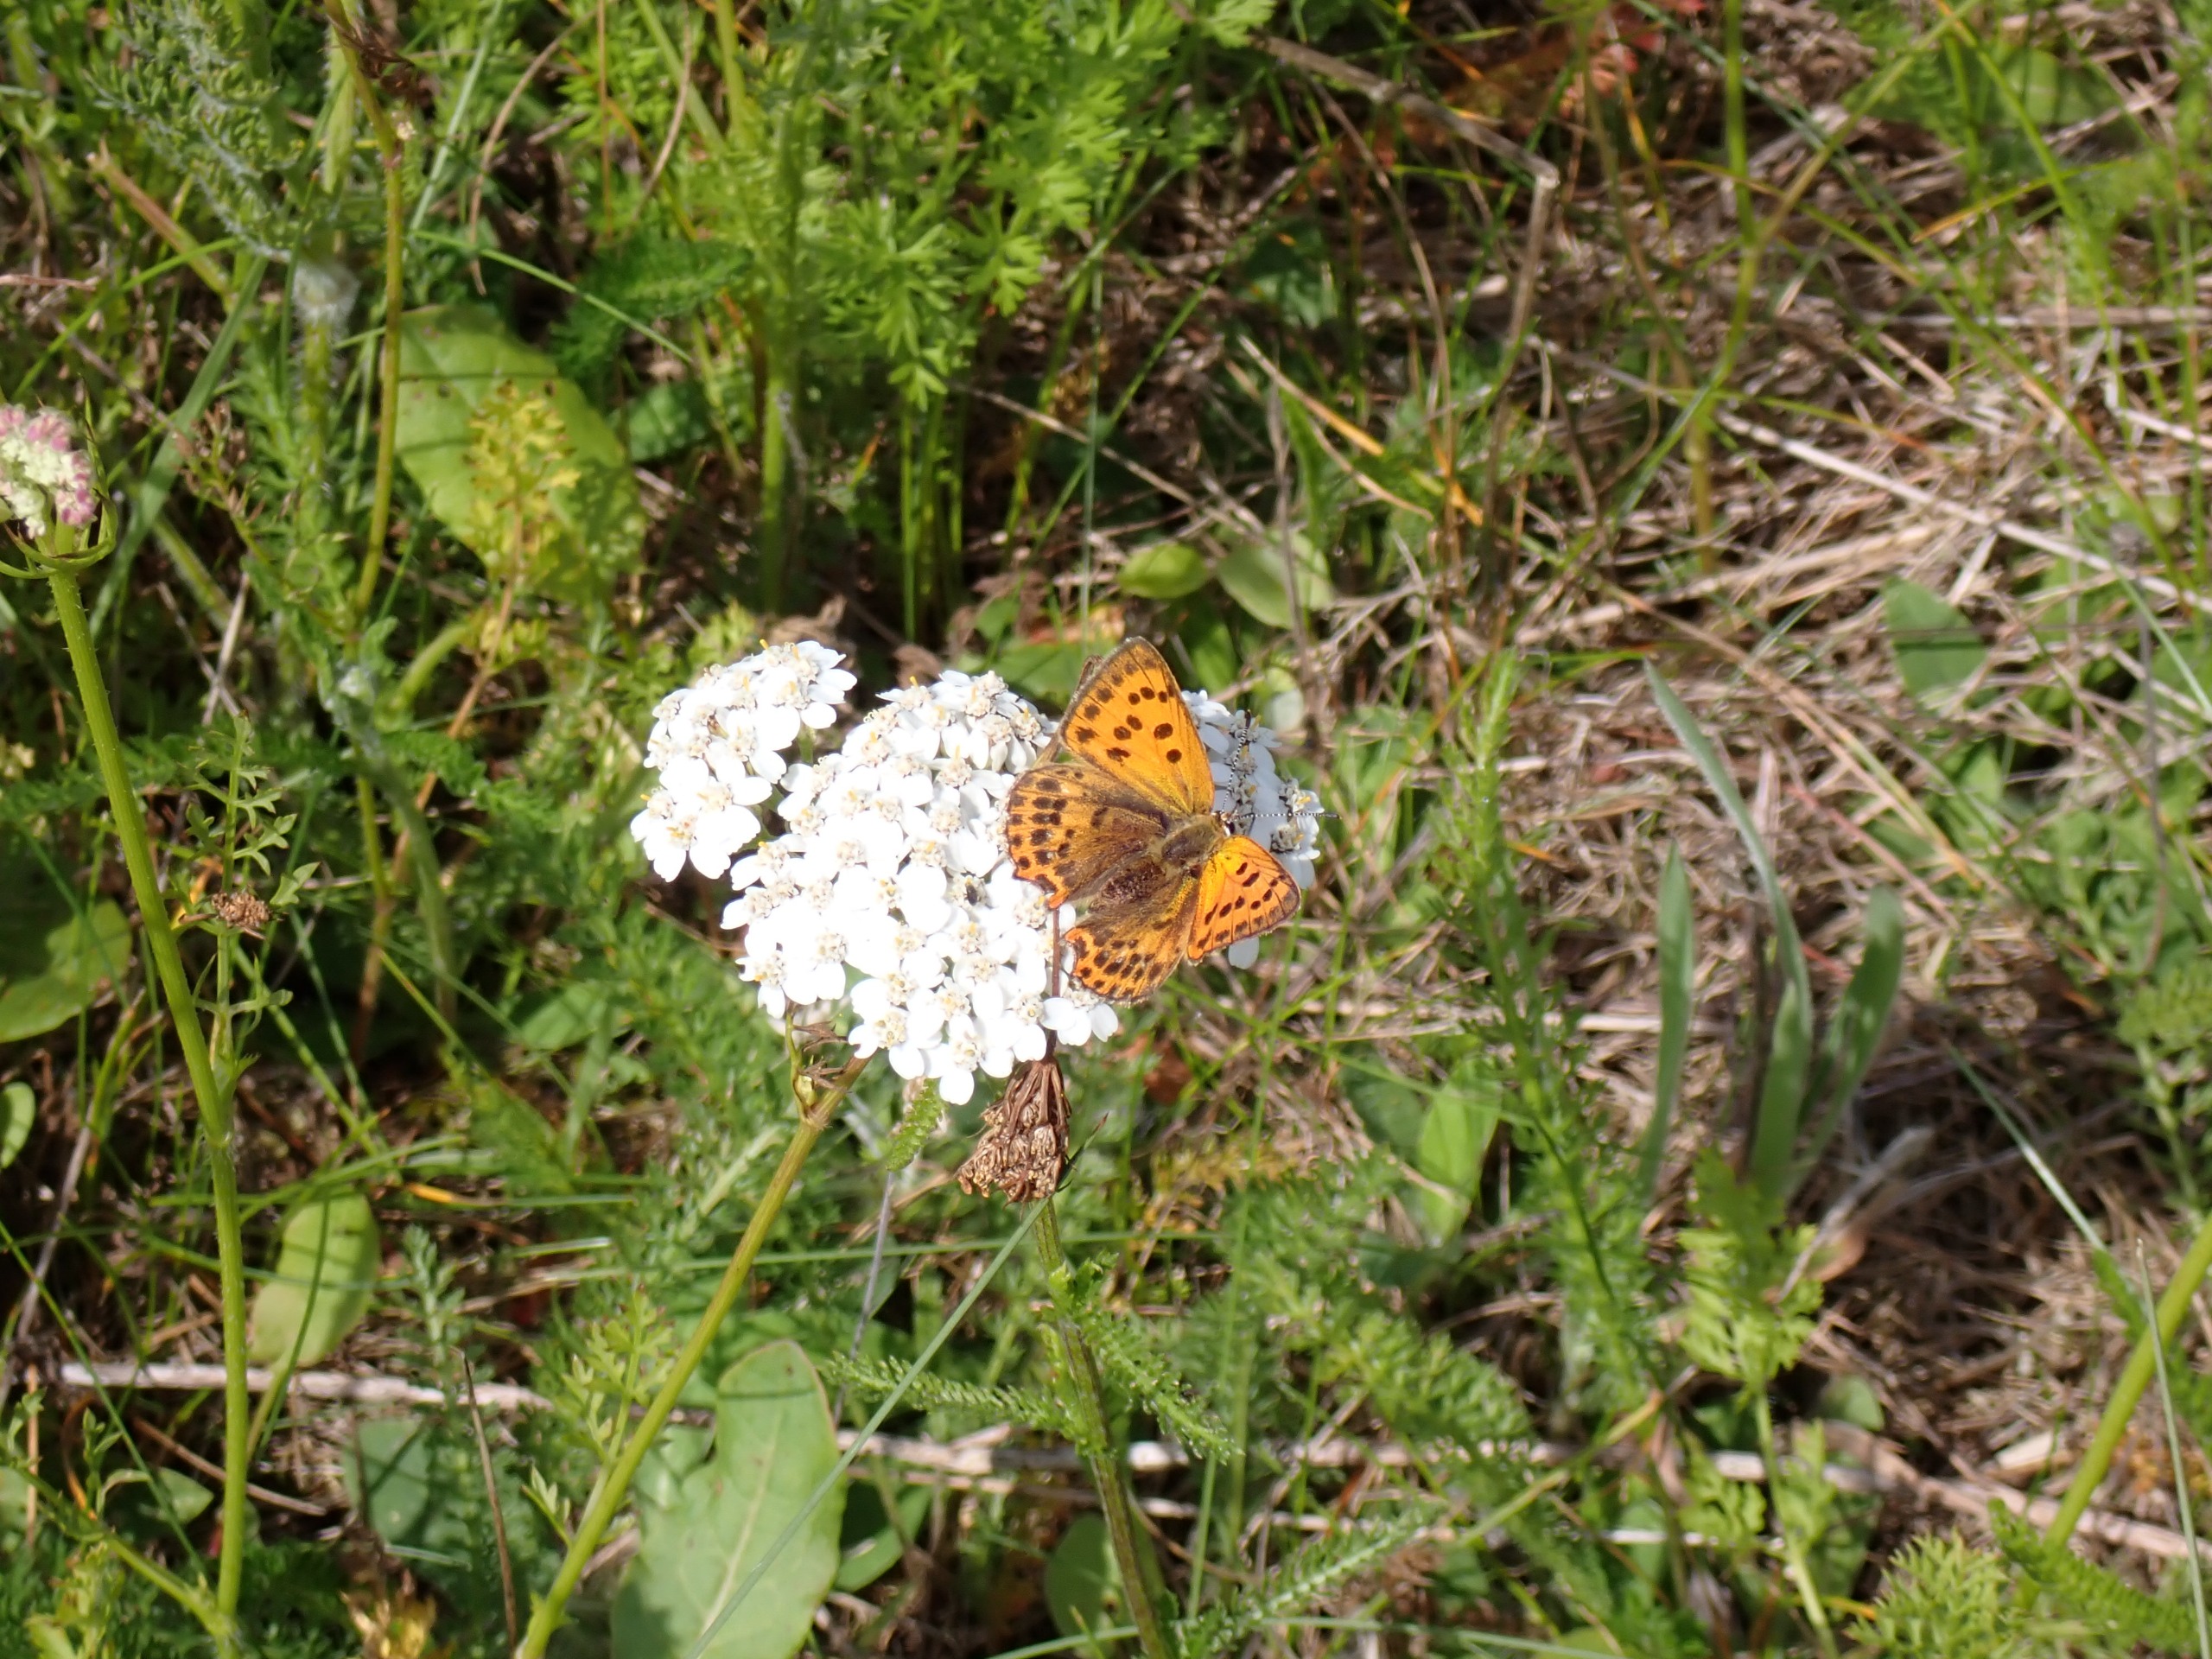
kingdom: Animalia
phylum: Arthropoda
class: Insecta
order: Lepidoptera
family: Lycaenidae
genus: Lycaena
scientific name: Lycaena virgaureae
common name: Dukatsommerfugl
